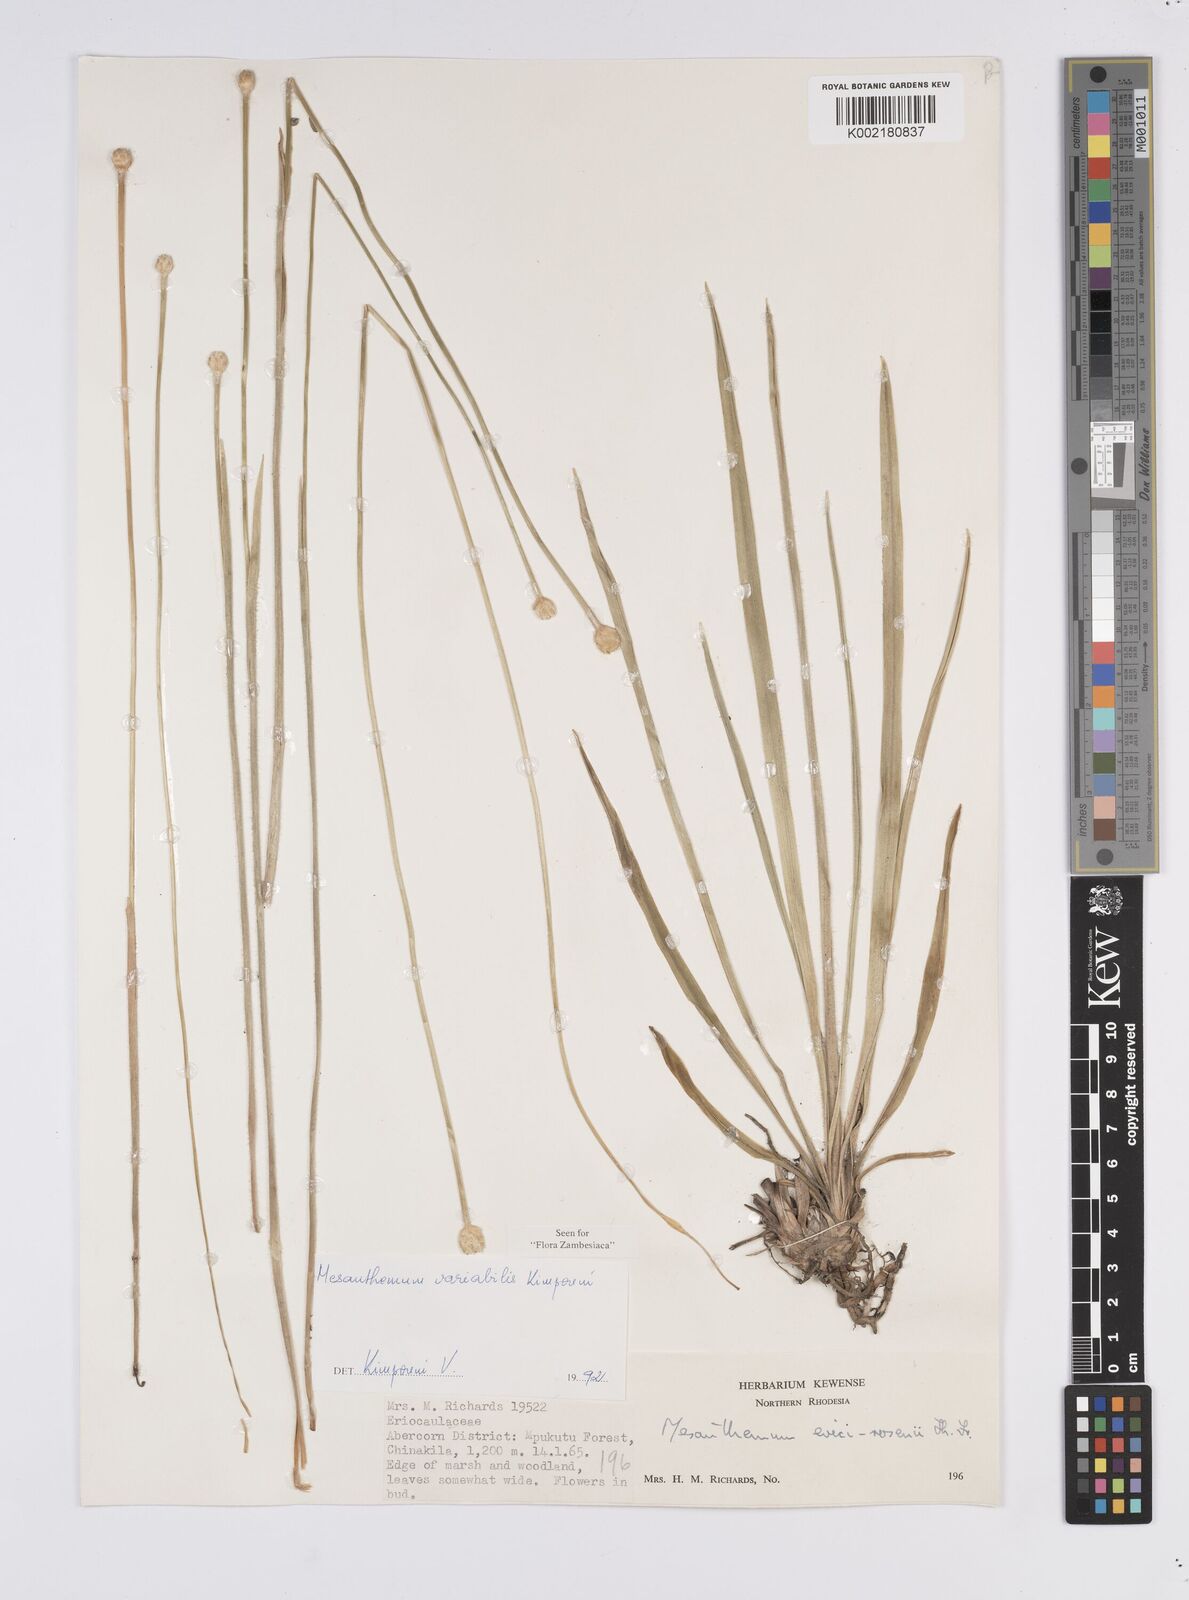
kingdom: Plantae
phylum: Tracheophyta
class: Liliopsida
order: Poales
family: Eriocaulaceae
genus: Mesanthemum
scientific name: Mesanthemum variabile
